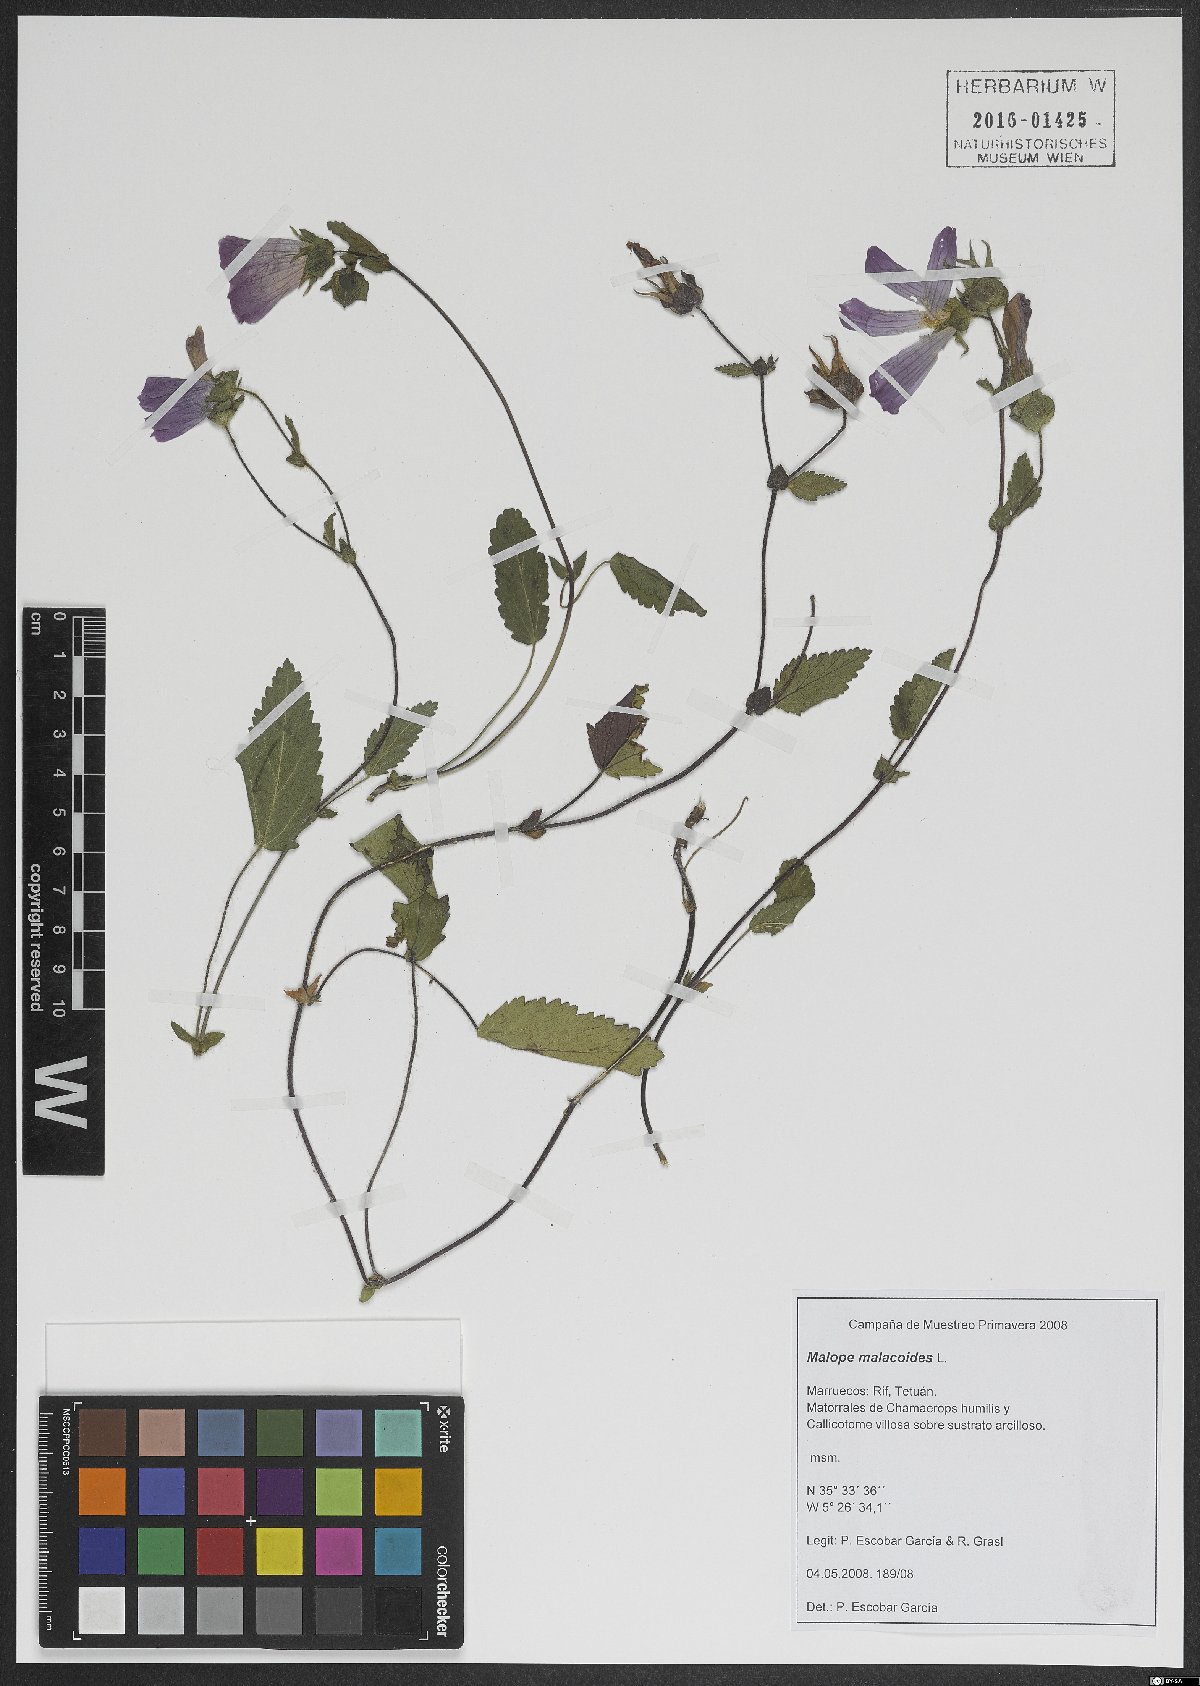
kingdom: Plantae
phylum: Tracheophyta
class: Magnoliopsida
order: Malvales
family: Malvaceae
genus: Malope
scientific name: Malope malacoides
